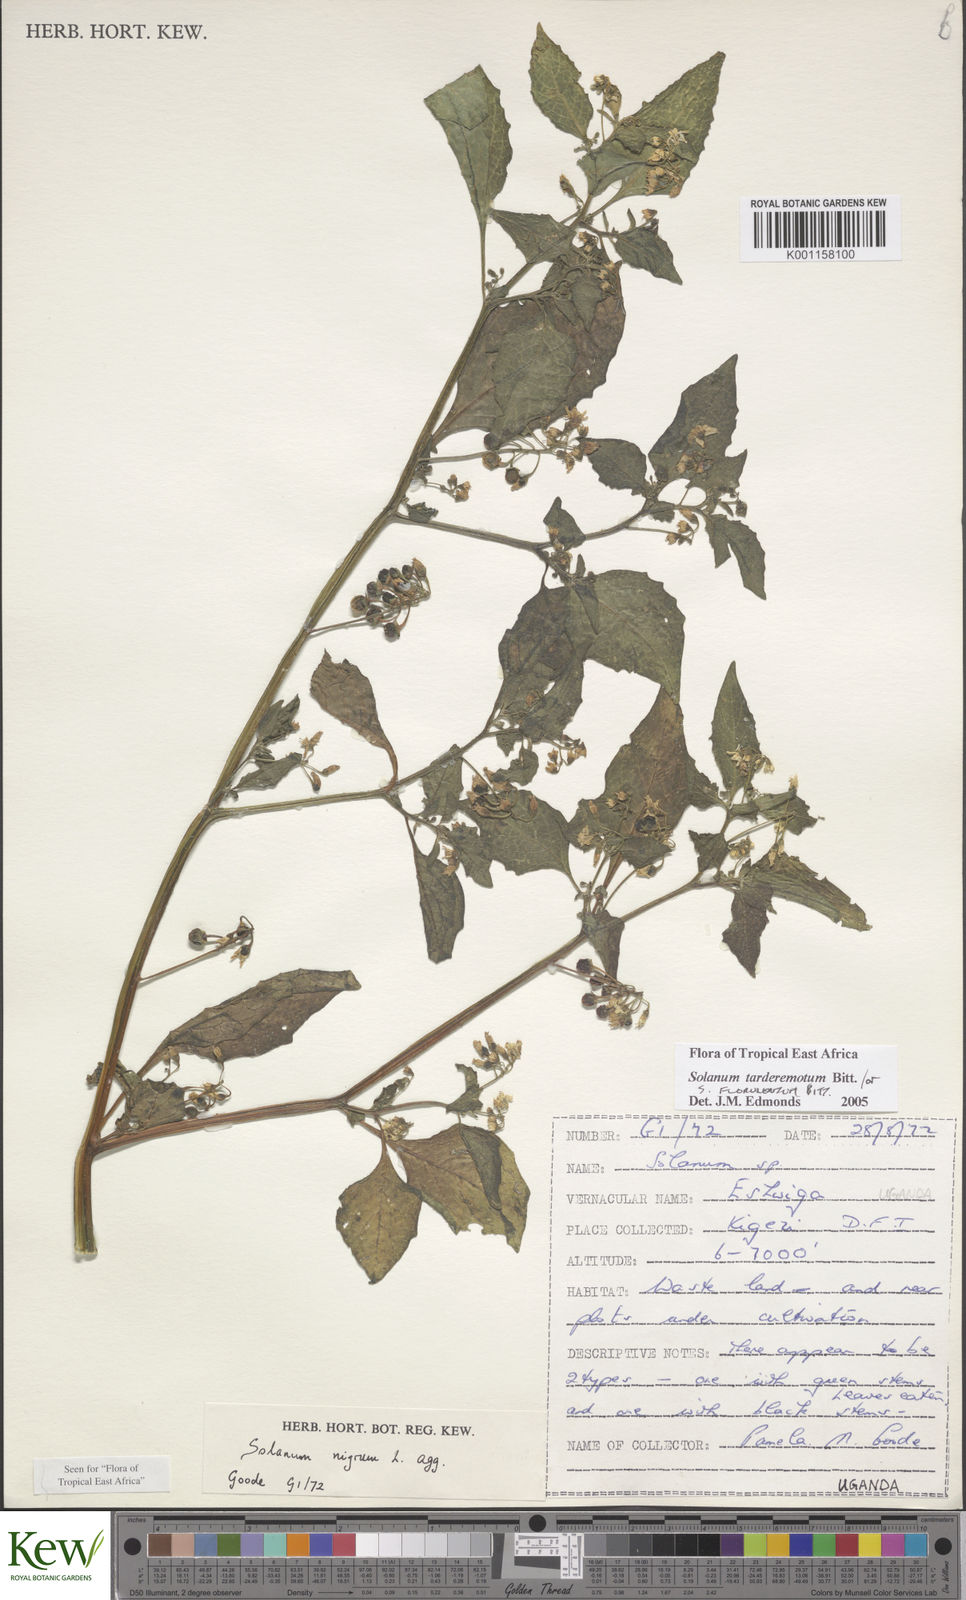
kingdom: Plantae
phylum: Tracheophyta
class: Magnoliopsida
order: Solanales
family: Solanaceae
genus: Solanum
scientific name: Solanum tarderemotum
